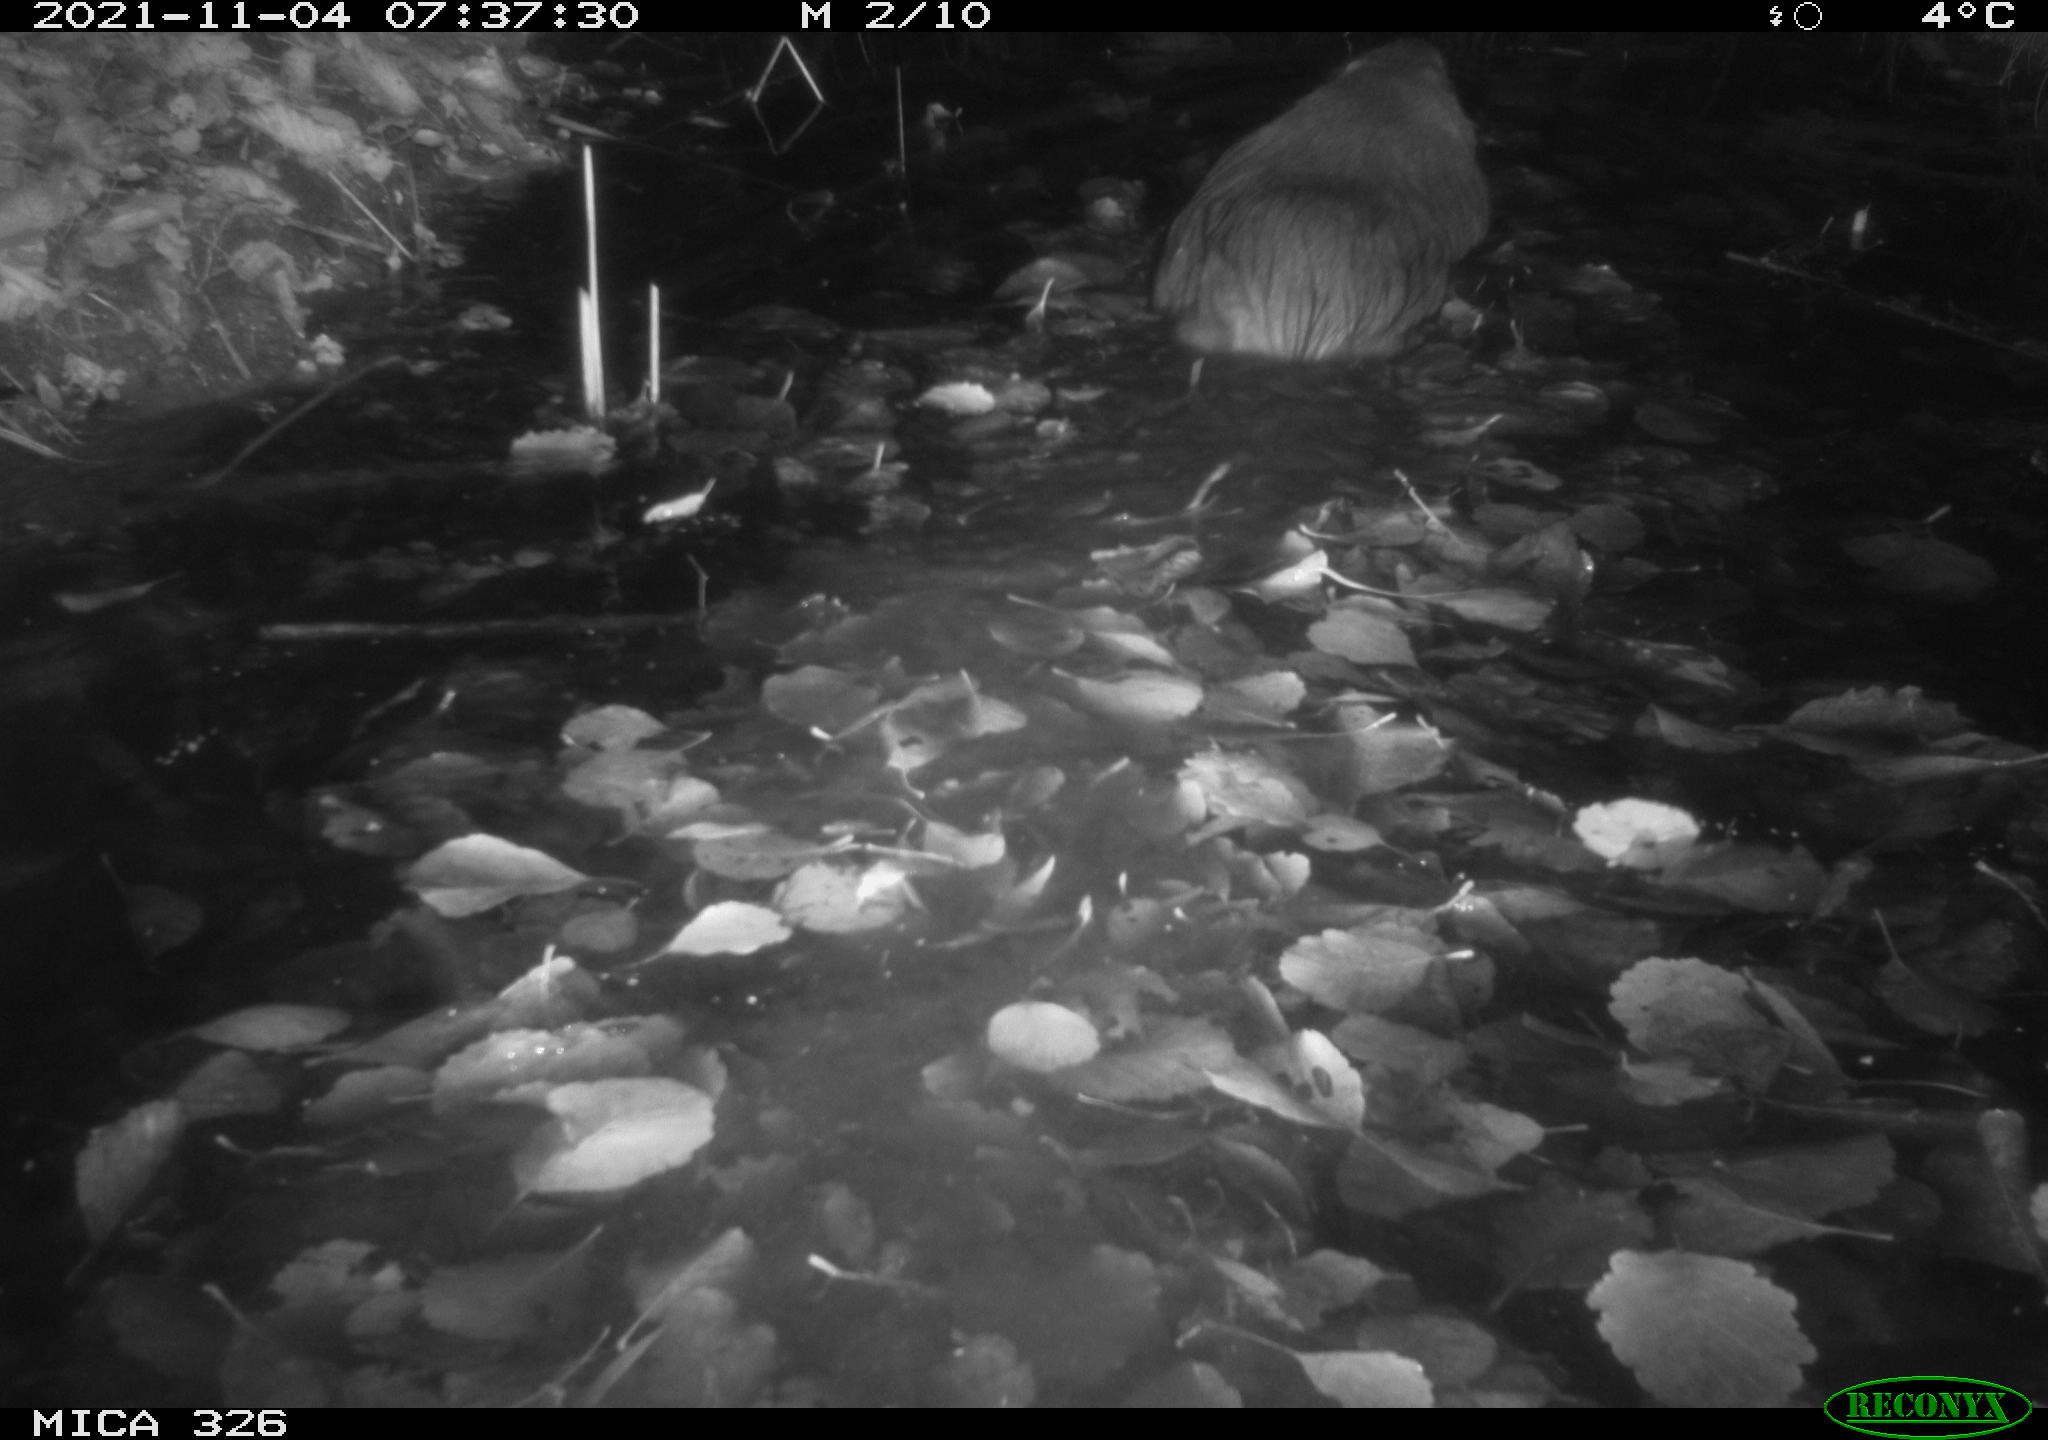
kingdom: Animalia
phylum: Chordata
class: Mammalia
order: Rodentia
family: Myocastoridae
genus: Myocastor
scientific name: Myocastor coypus
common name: Coypu
